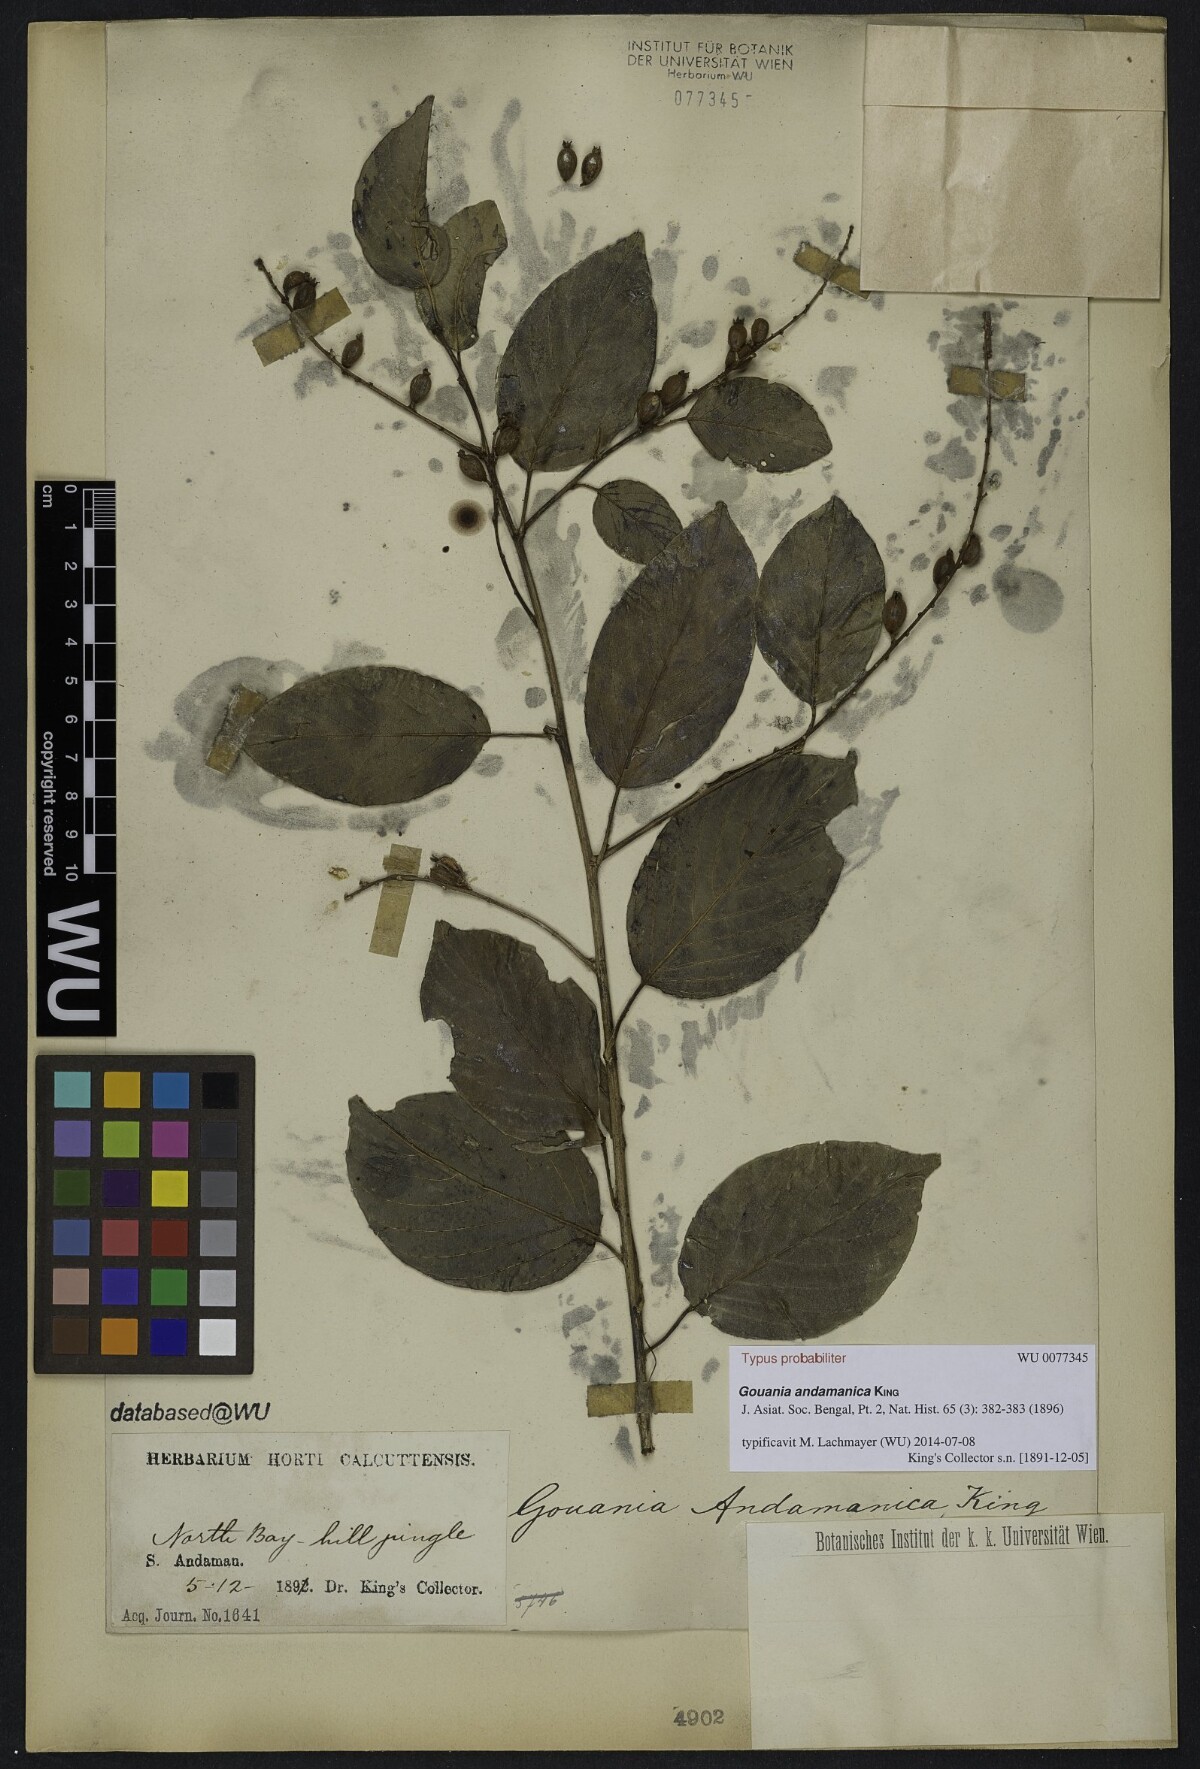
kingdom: Plantae
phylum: Tracheophyta
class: Magnoliopsida
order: Rosales
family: Rhamnaceae
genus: Gouania
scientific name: Gouania andamanica
